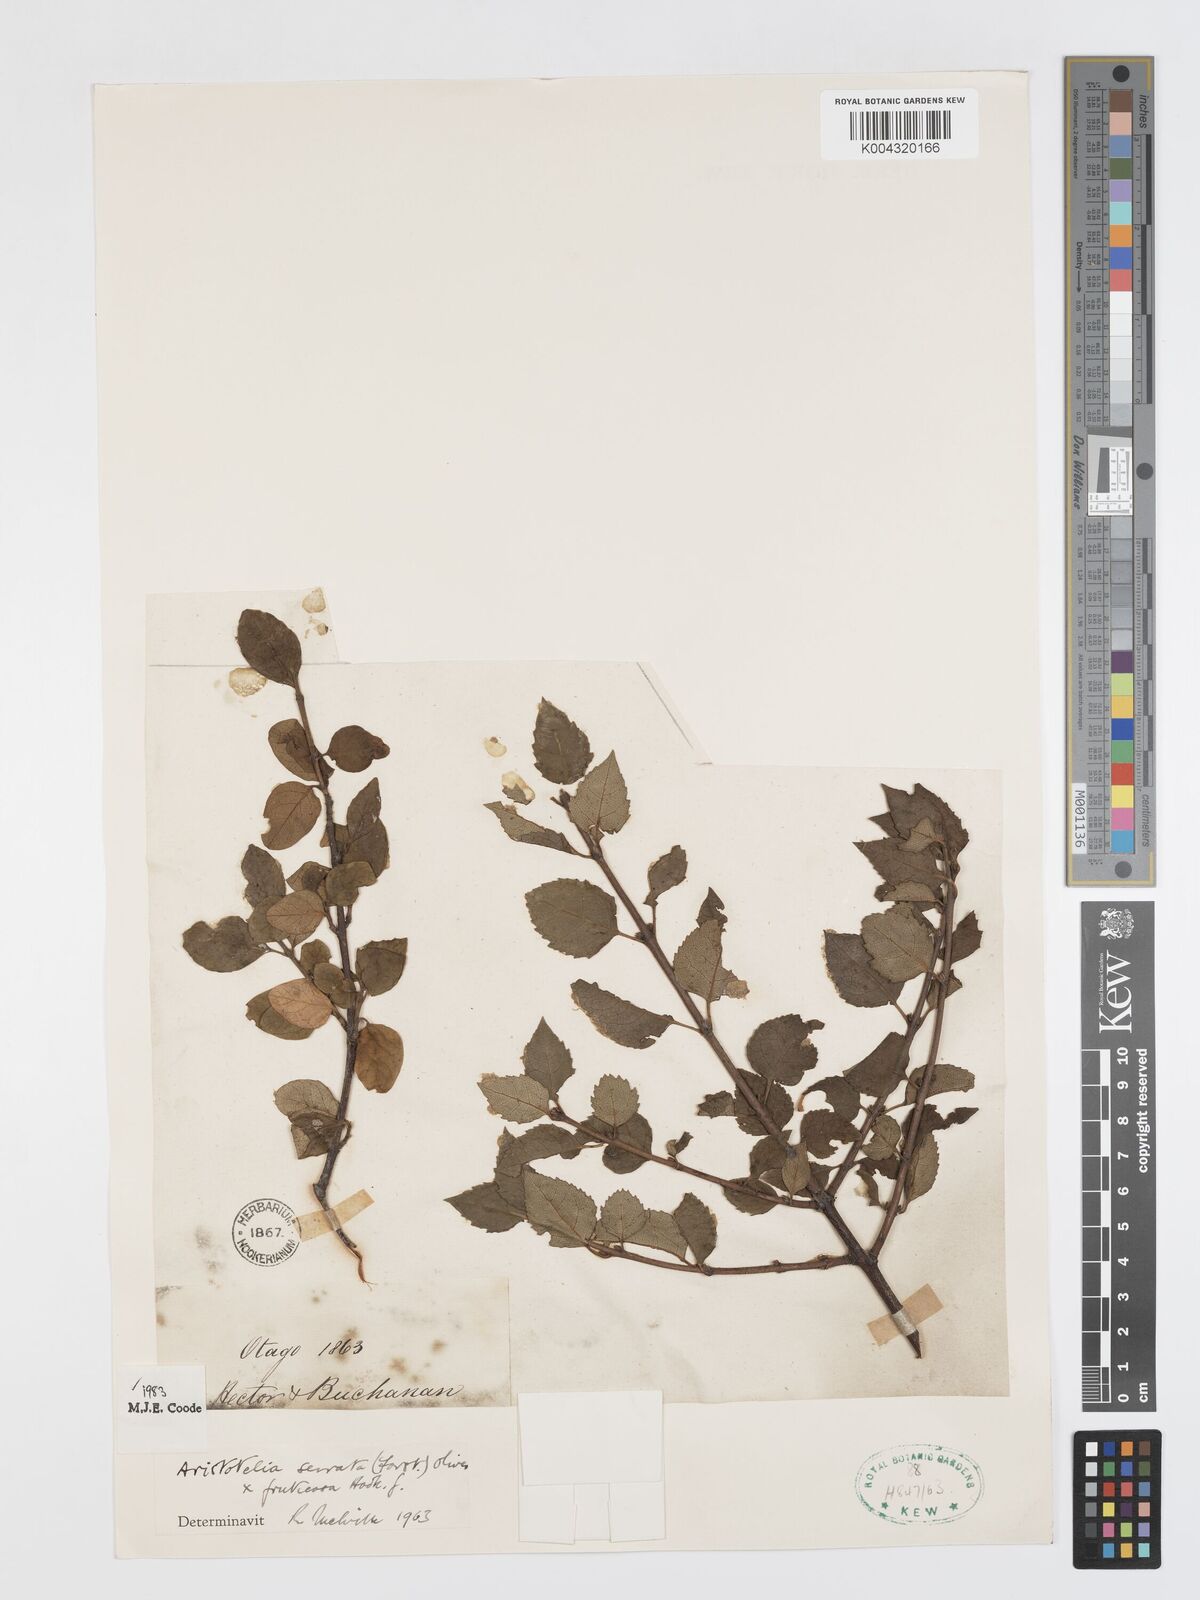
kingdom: Plantae
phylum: Tracheophyta
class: Magnoliopsida
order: Oxalidales
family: Elaeocarpaceae
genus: Aristotelia
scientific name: Aristotelia fruticosa
